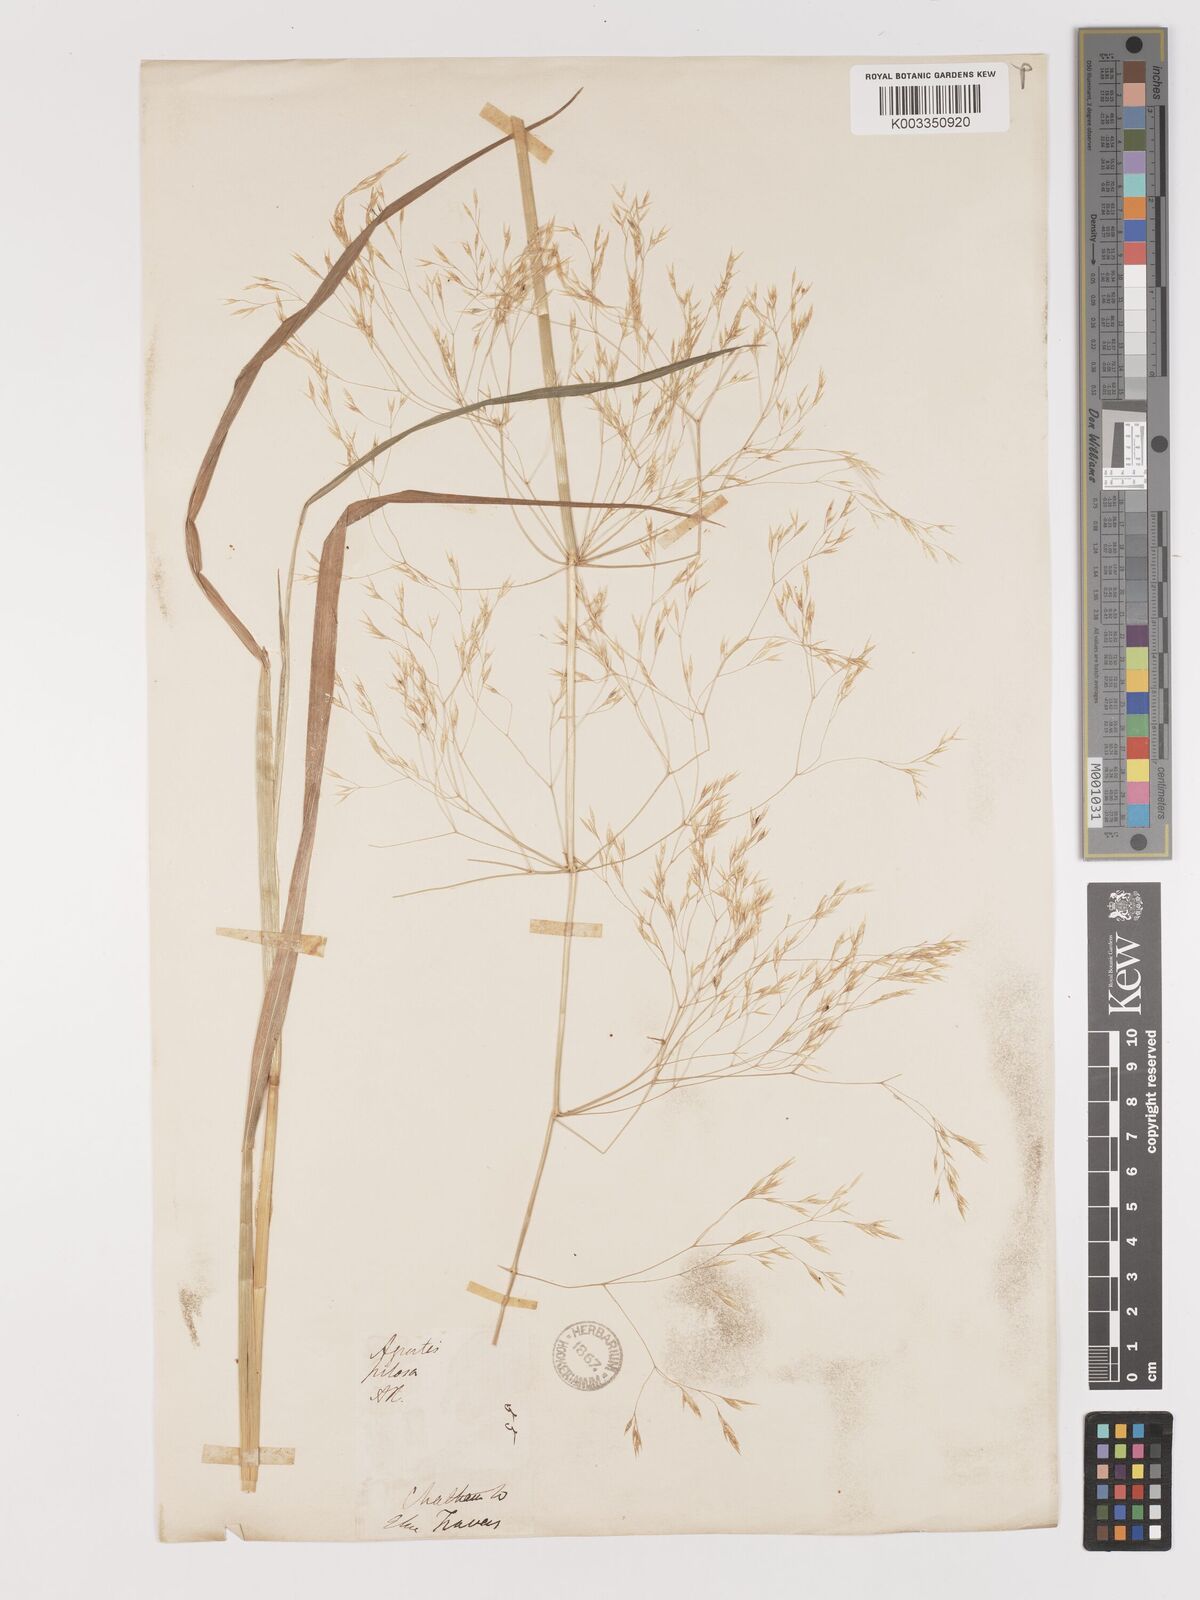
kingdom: Plantae
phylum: Tracheophyta
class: Liliopsida
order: Poales
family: Poaceae
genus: Lachnagrostis
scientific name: Lachnagrostis pilosa
